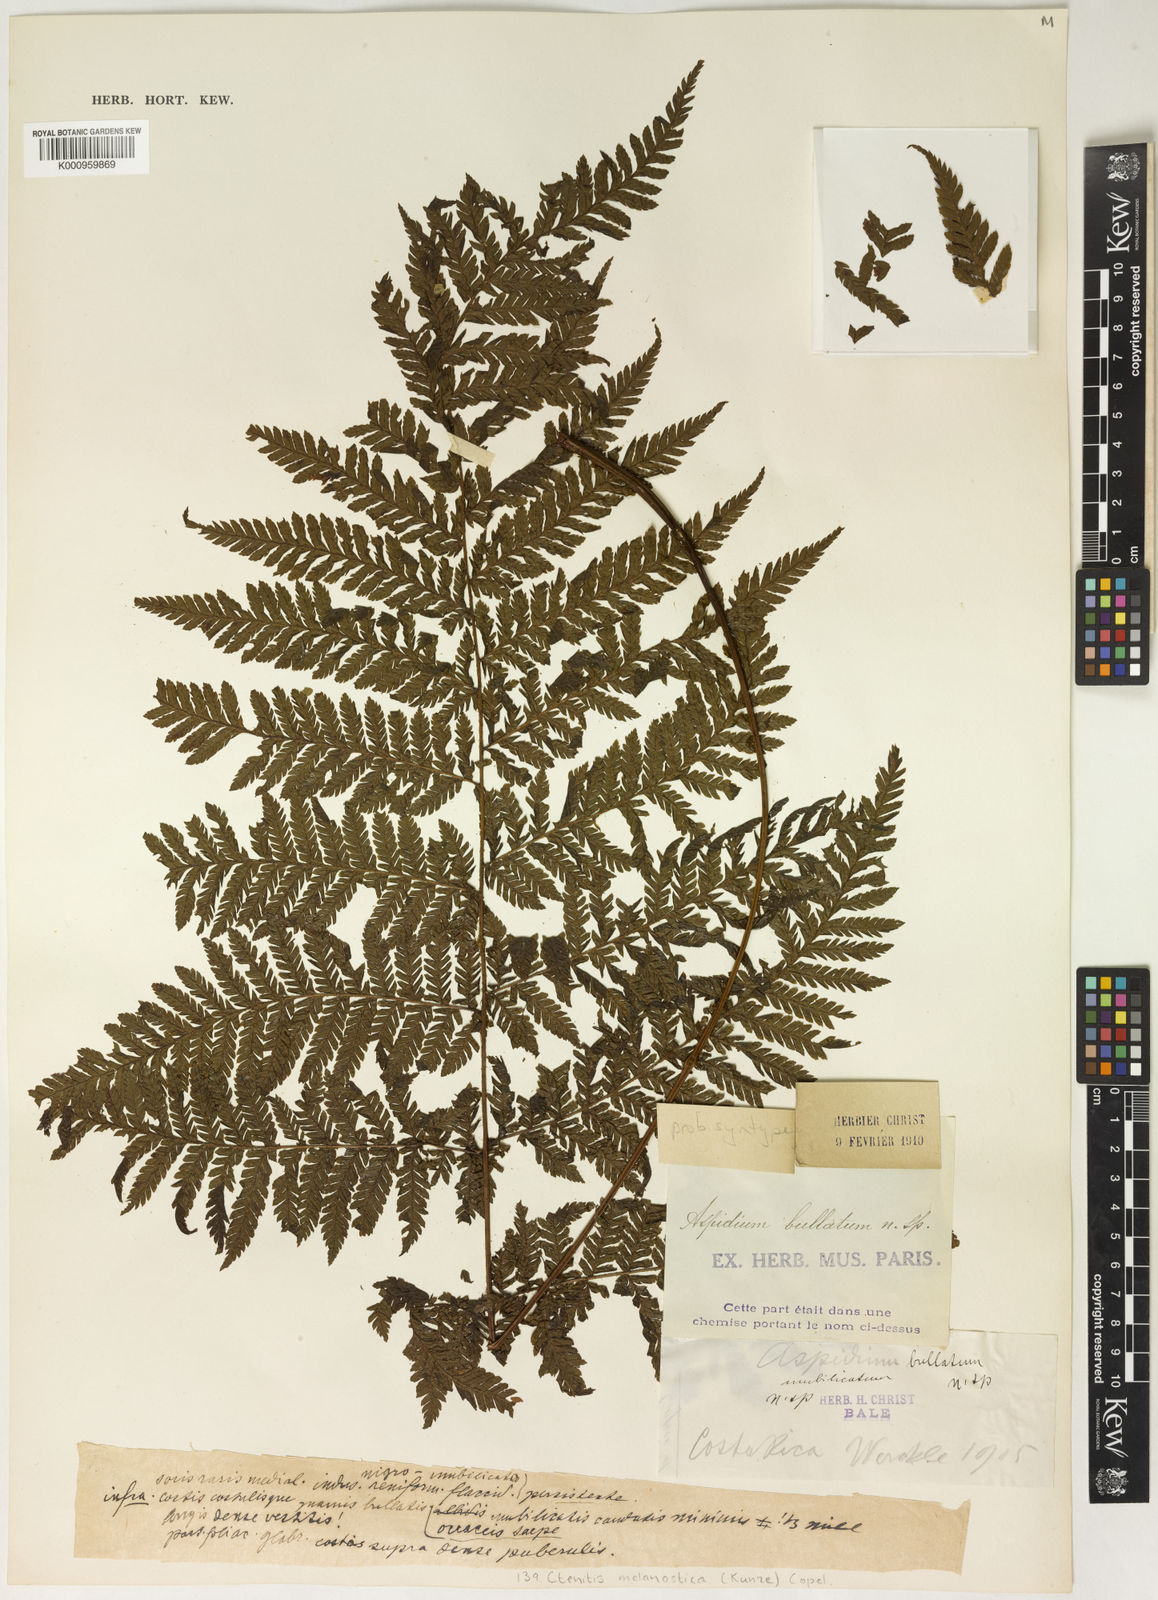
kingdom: Plantae
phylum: Tracheophyta
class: Polypodiopsida
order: Polypodiales
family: Dryopteridaceae
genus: Ctenitis
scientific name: Ctenitis melanosticta
